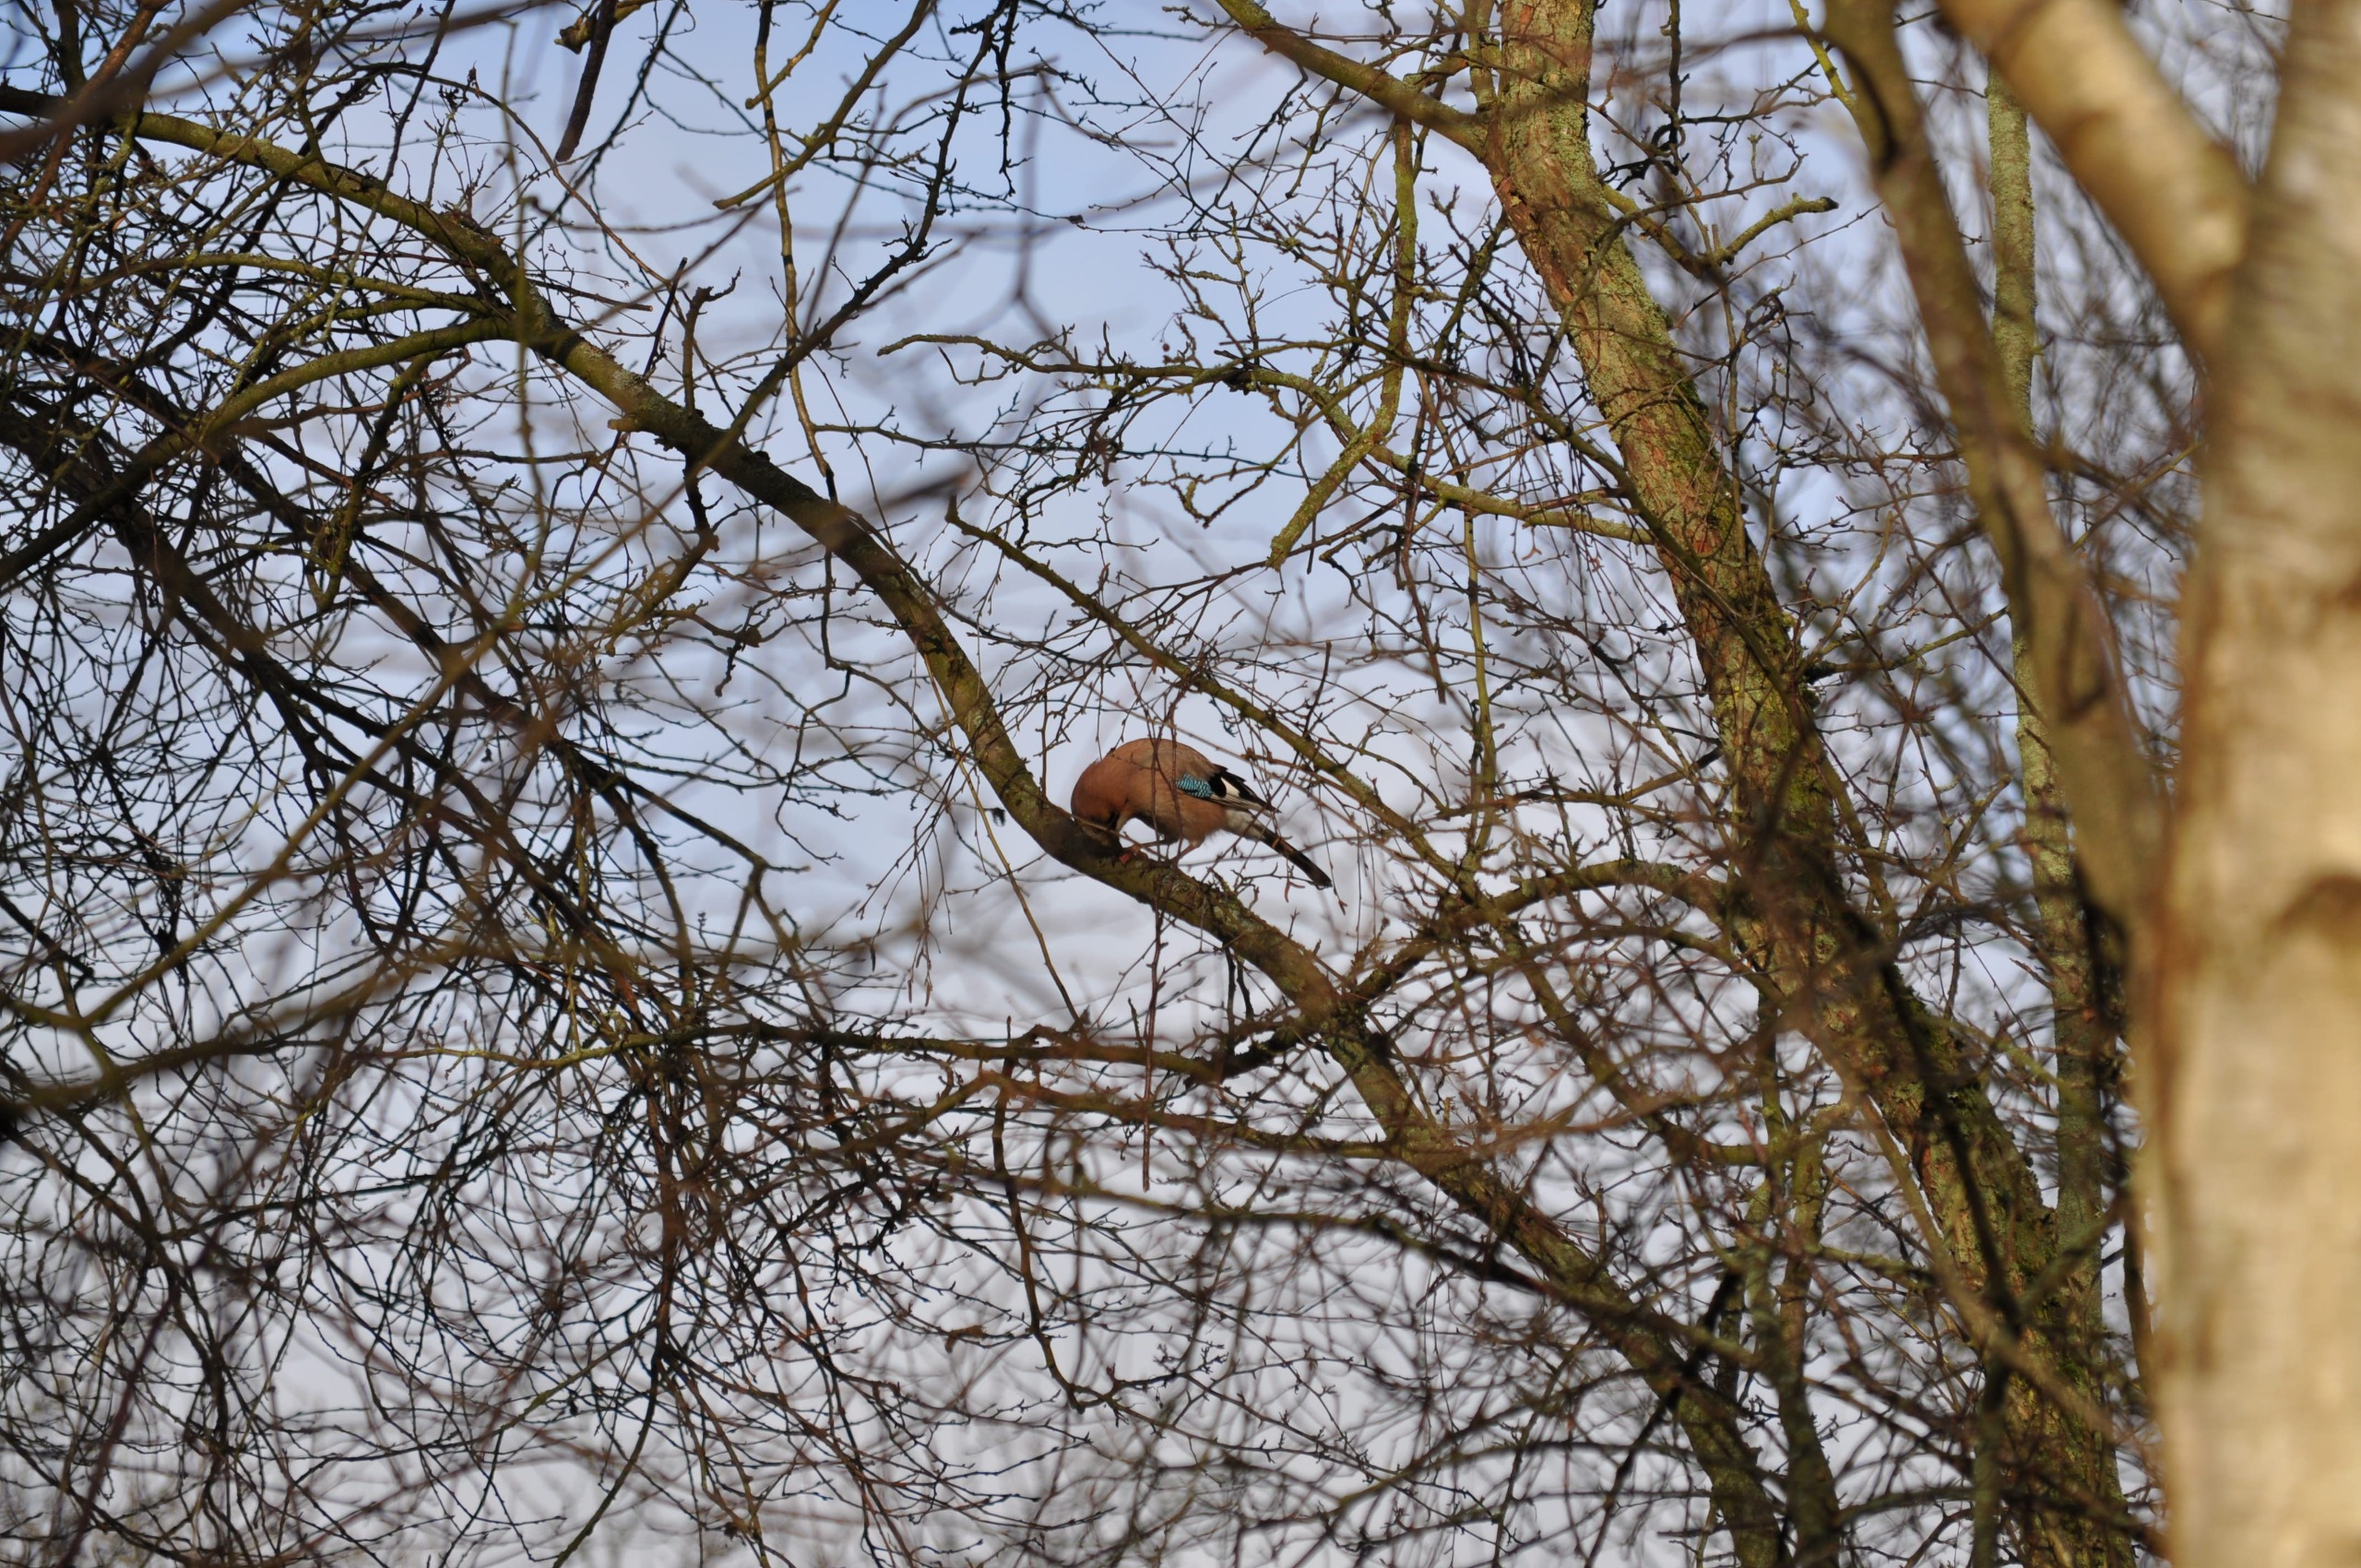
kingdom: Animalia
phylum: Chordata
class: Aves
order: Passeriformes
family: Corvidae
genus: Garrulus
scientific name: Garrulus glandarius
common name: Skovskade
